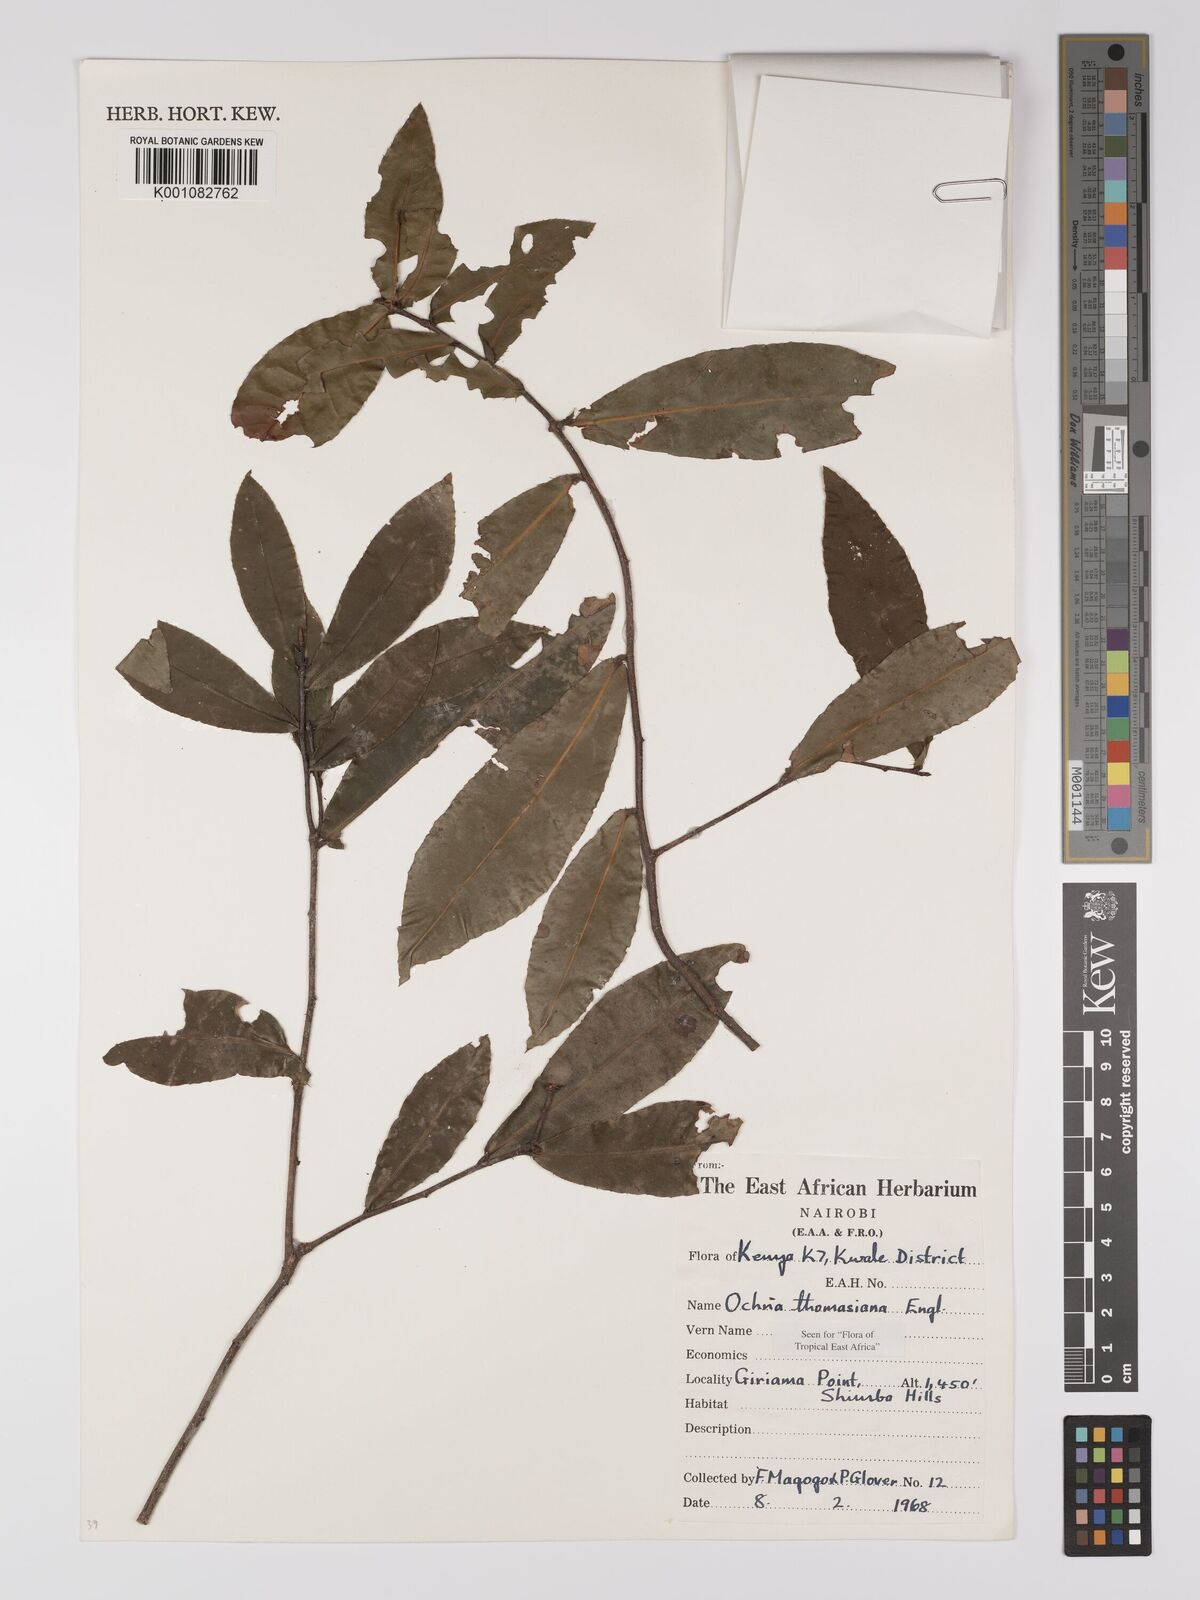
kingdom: Plantae
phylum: Tracheophyta
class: Magnoliopsida
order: Malpighiales
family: Ochnaceae
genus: Ochna
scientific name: Ochna thomasiana
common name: Thomas' bird's-eye bush
